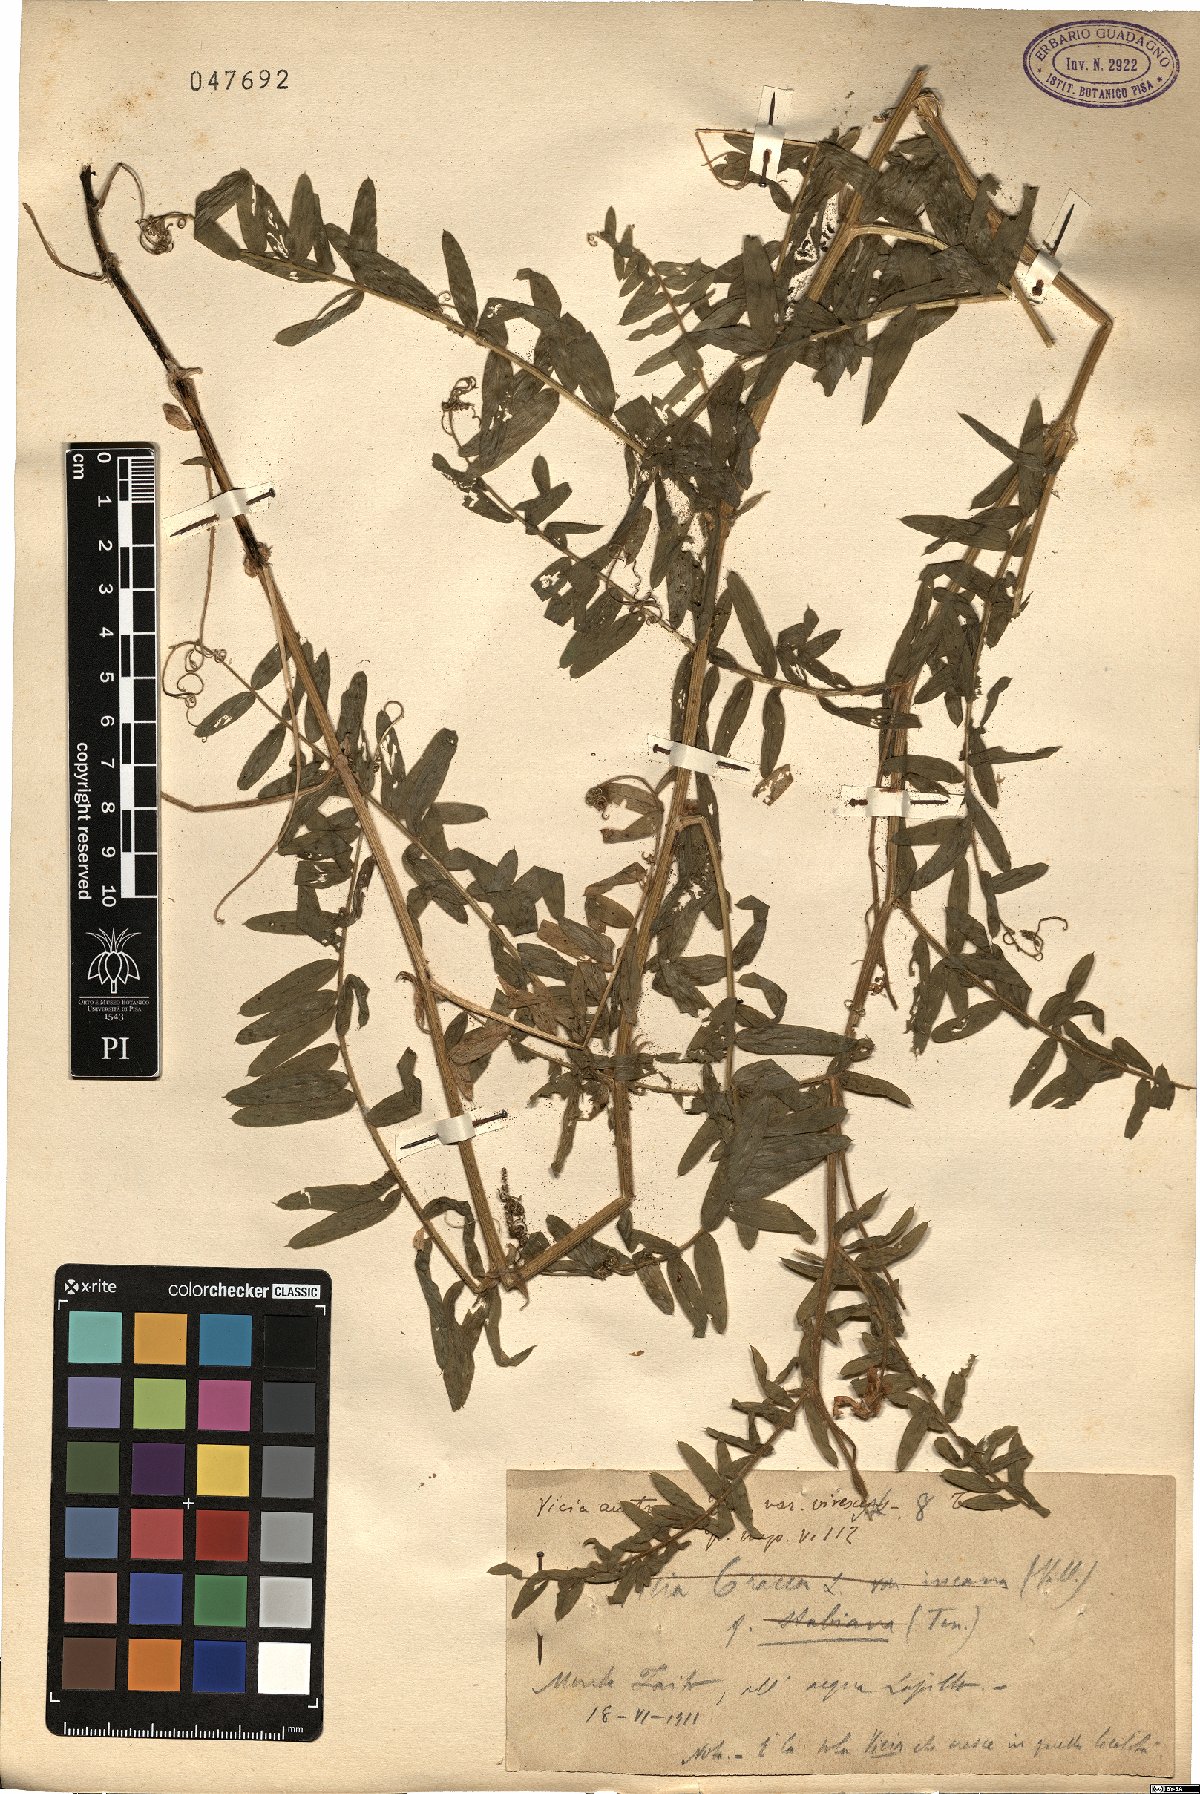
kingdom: Plantae
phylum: Tracheophyta
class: Magnoliopsida
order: Fabales
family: Fabaceae
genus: Vicia
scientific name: Vicia cracca
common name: Bird vetch
